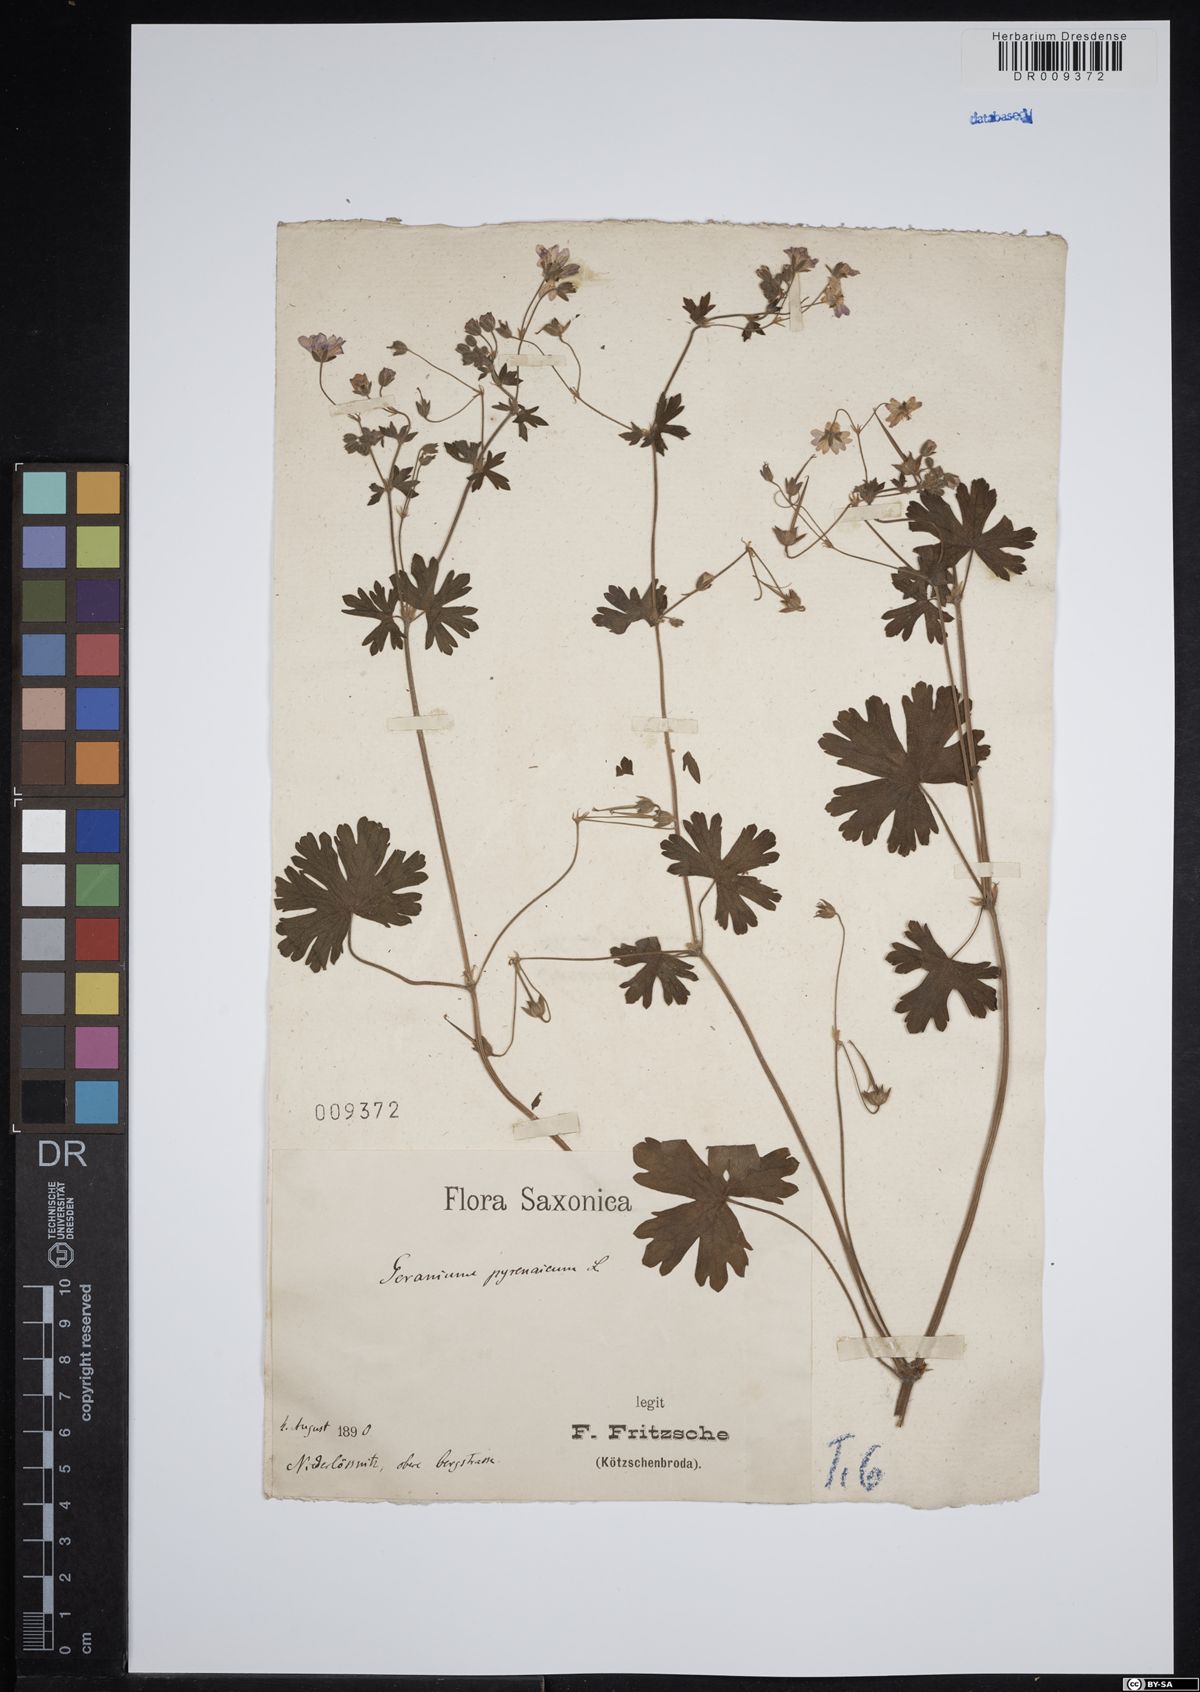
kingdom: Plantae
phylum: Tracheophyta
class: Magnoliopsida
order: Geraniales
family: Geraniaceae
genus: Geranium
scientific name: Geranium pyrenaicum
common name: Hedgerow crane's-bill
